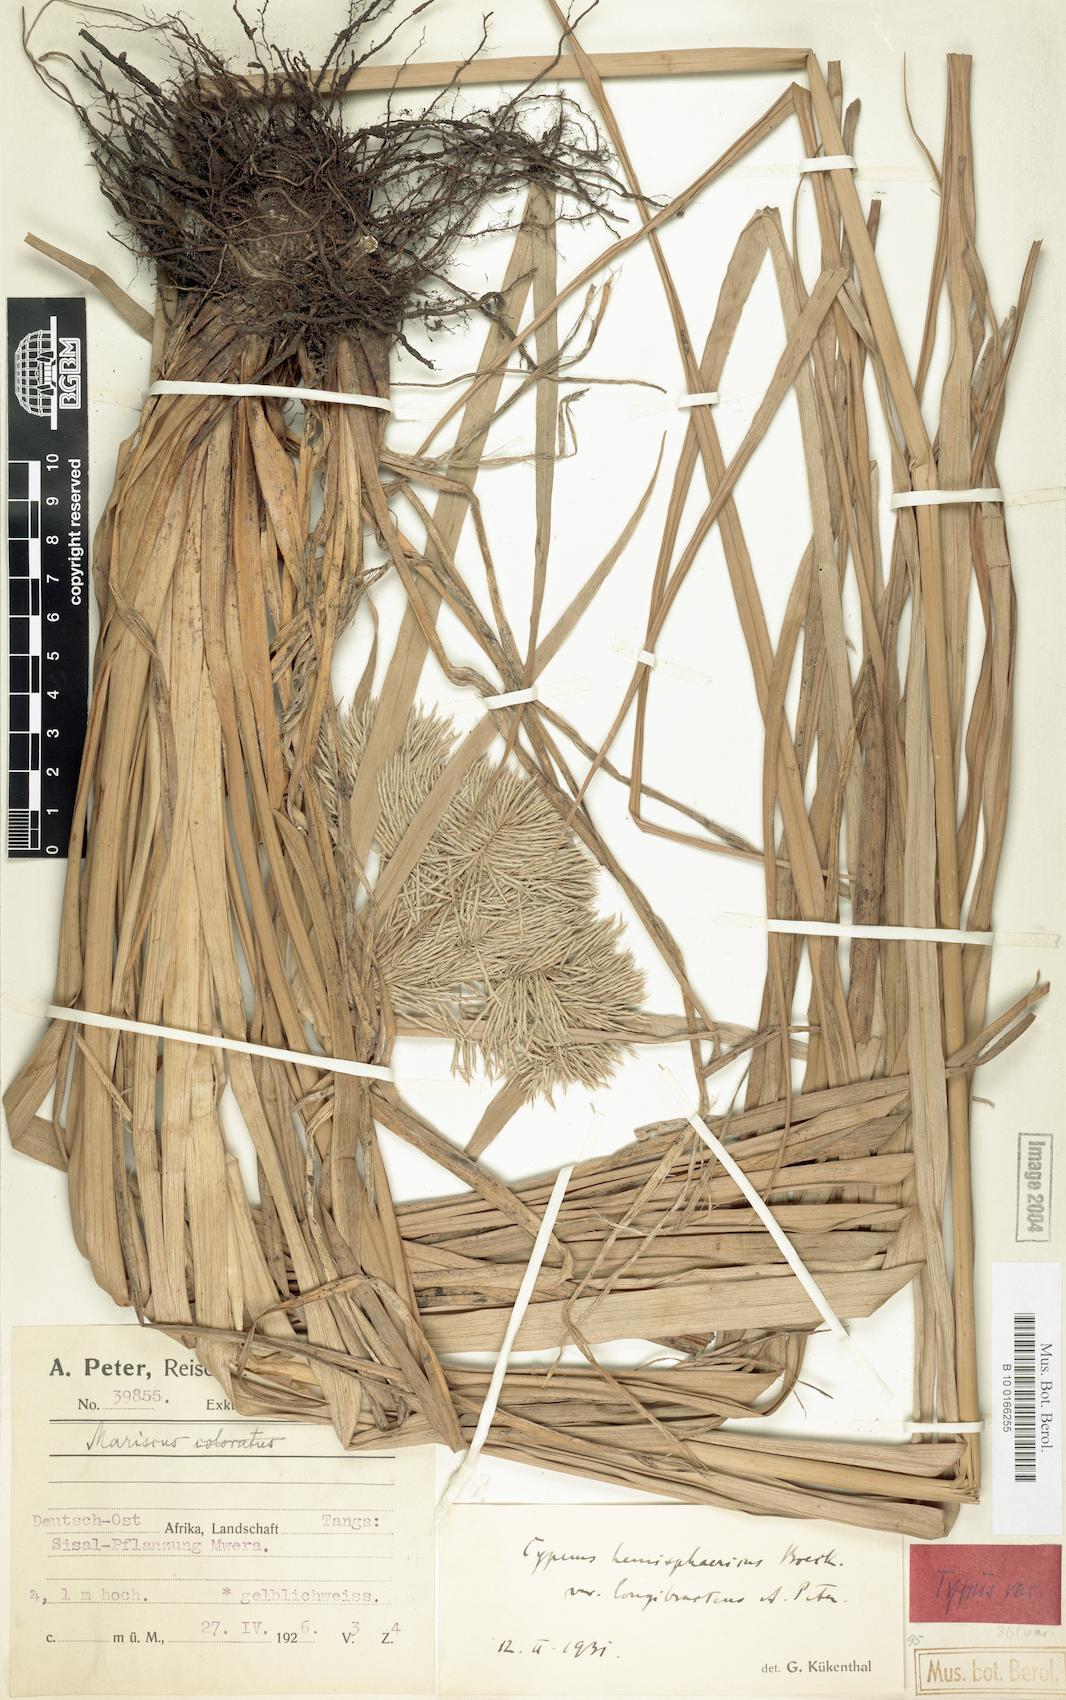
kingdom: Plantae
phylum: Tracheophyta
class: Liliopsida
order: Poales
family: Cyperaceae
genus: Cyperus
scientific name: Cyperus hemisphaericus
